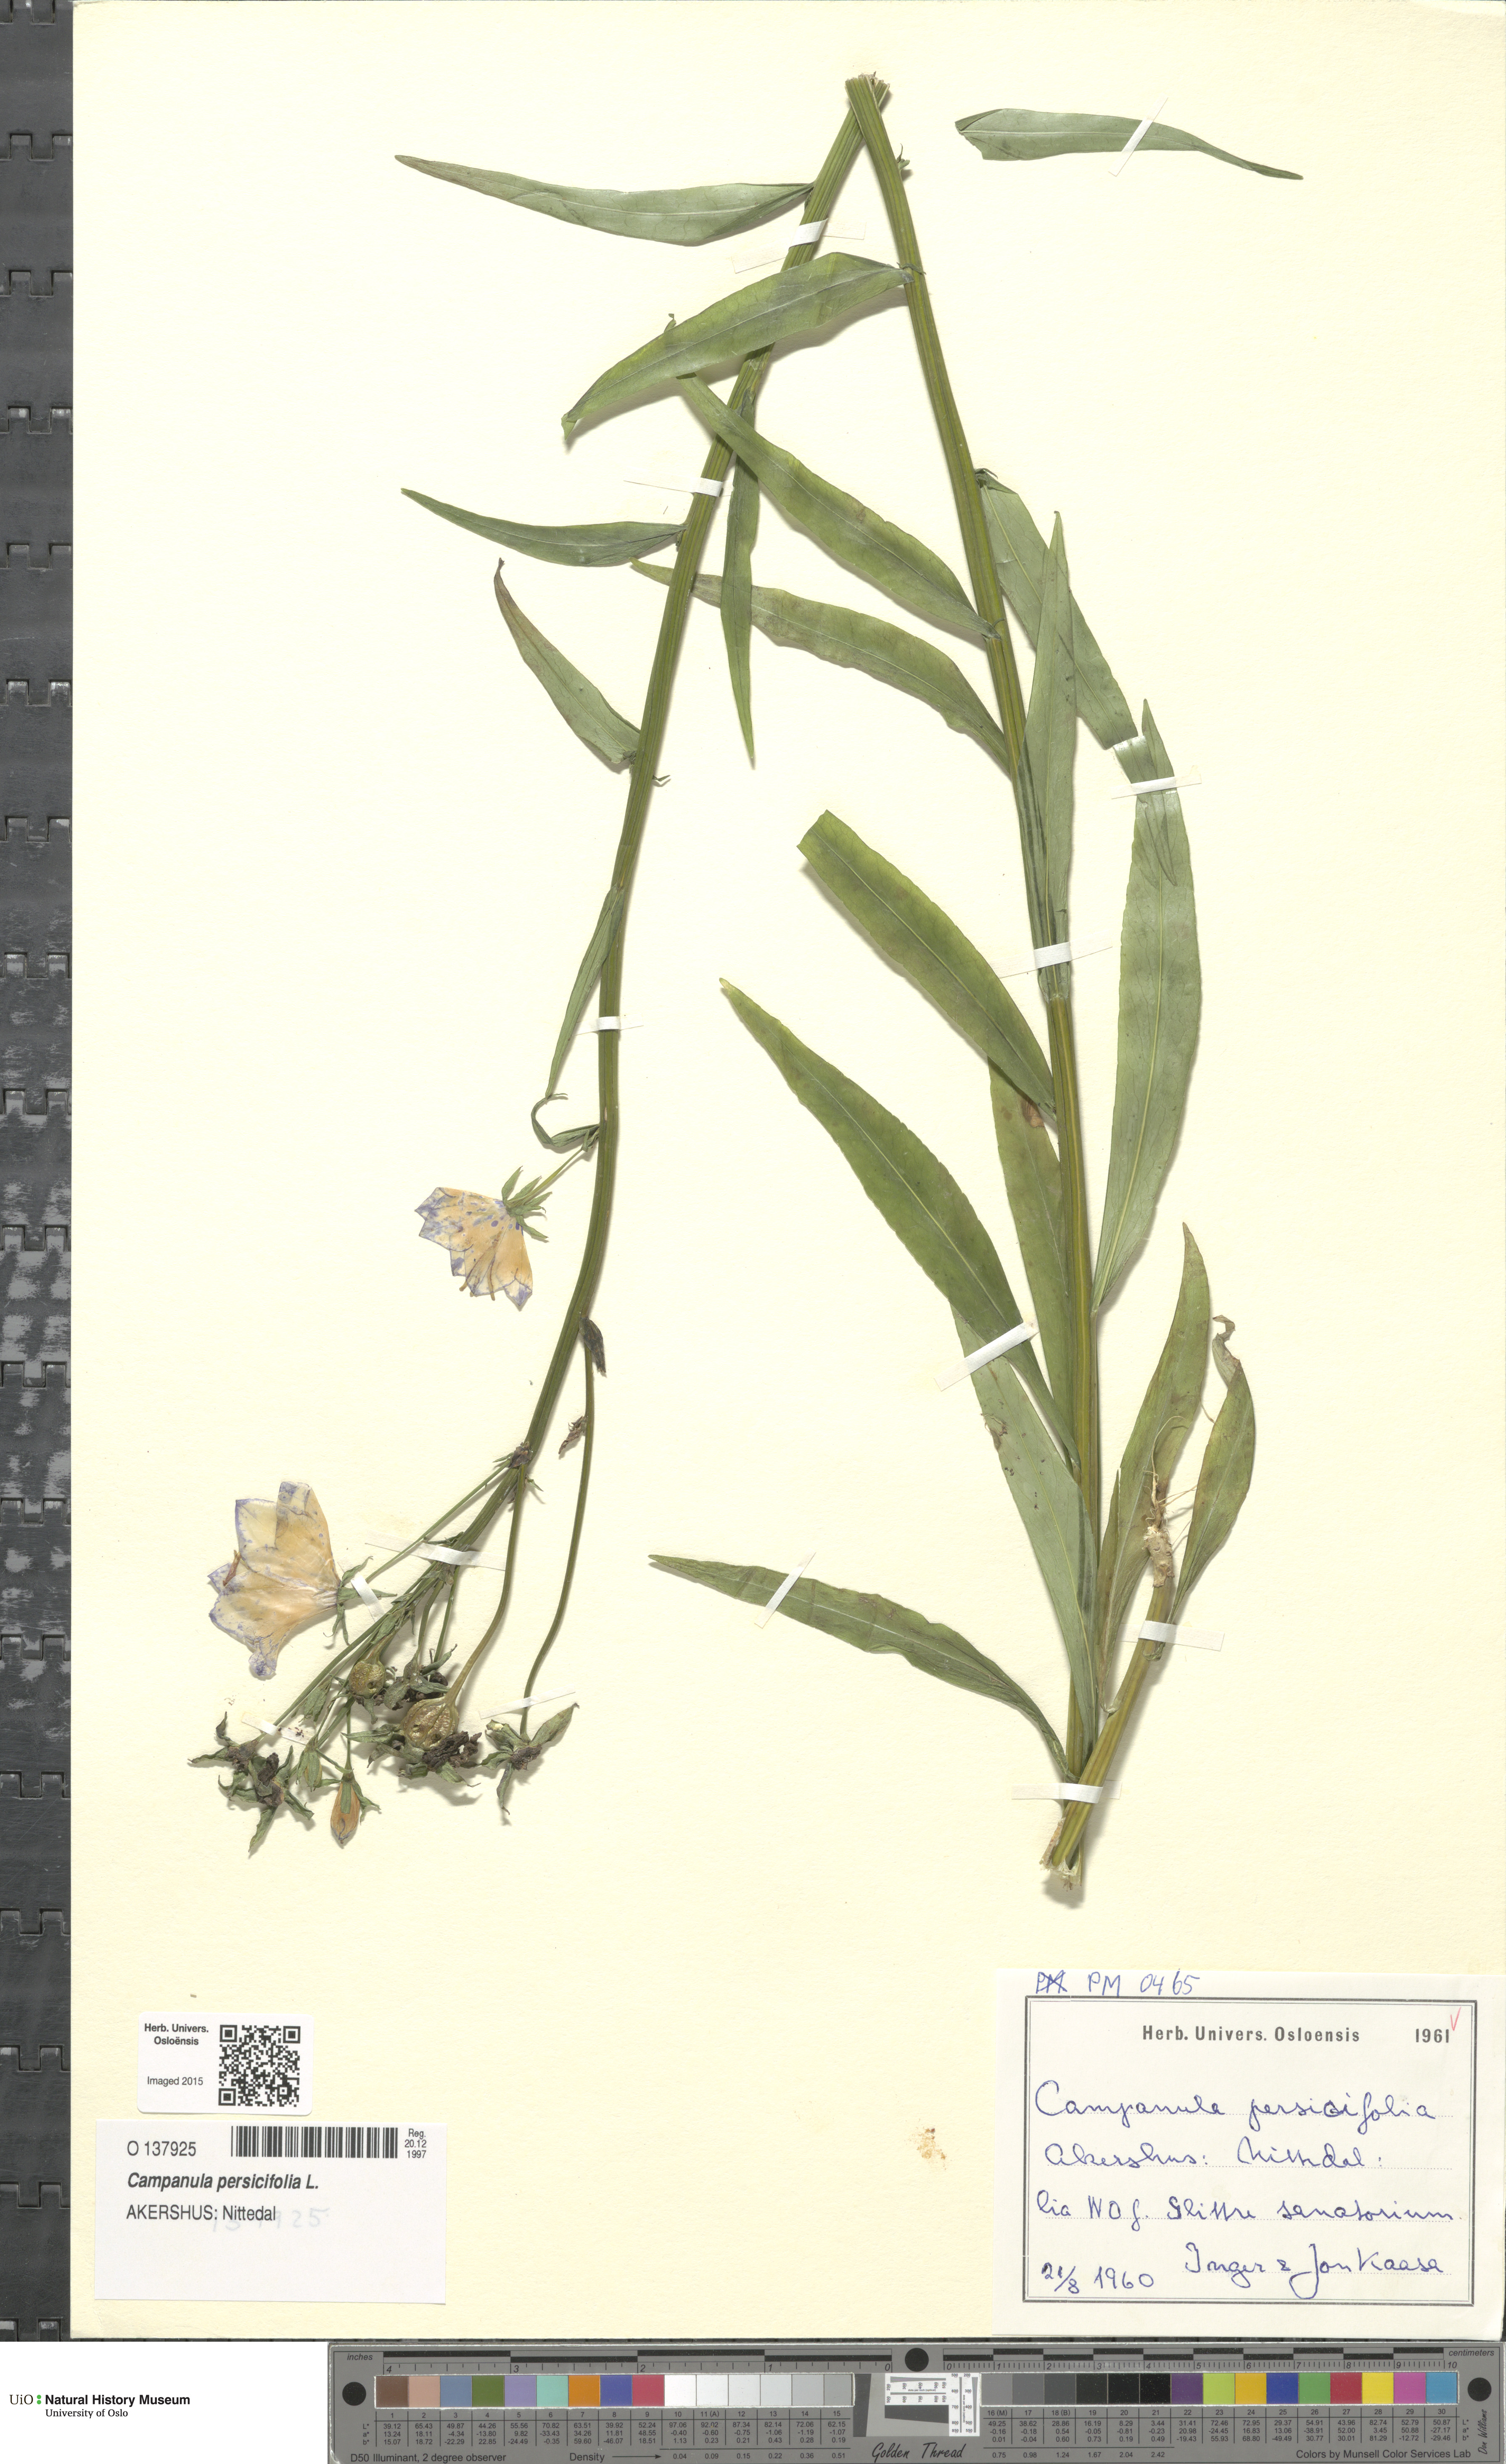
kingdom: Plantae
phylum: Tracheophyta
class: Magnoliopsida
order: Asterales
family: Campanulaceae
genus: Campanula
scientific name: Campanula persicifolia
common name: Peach-leaved bellflower
